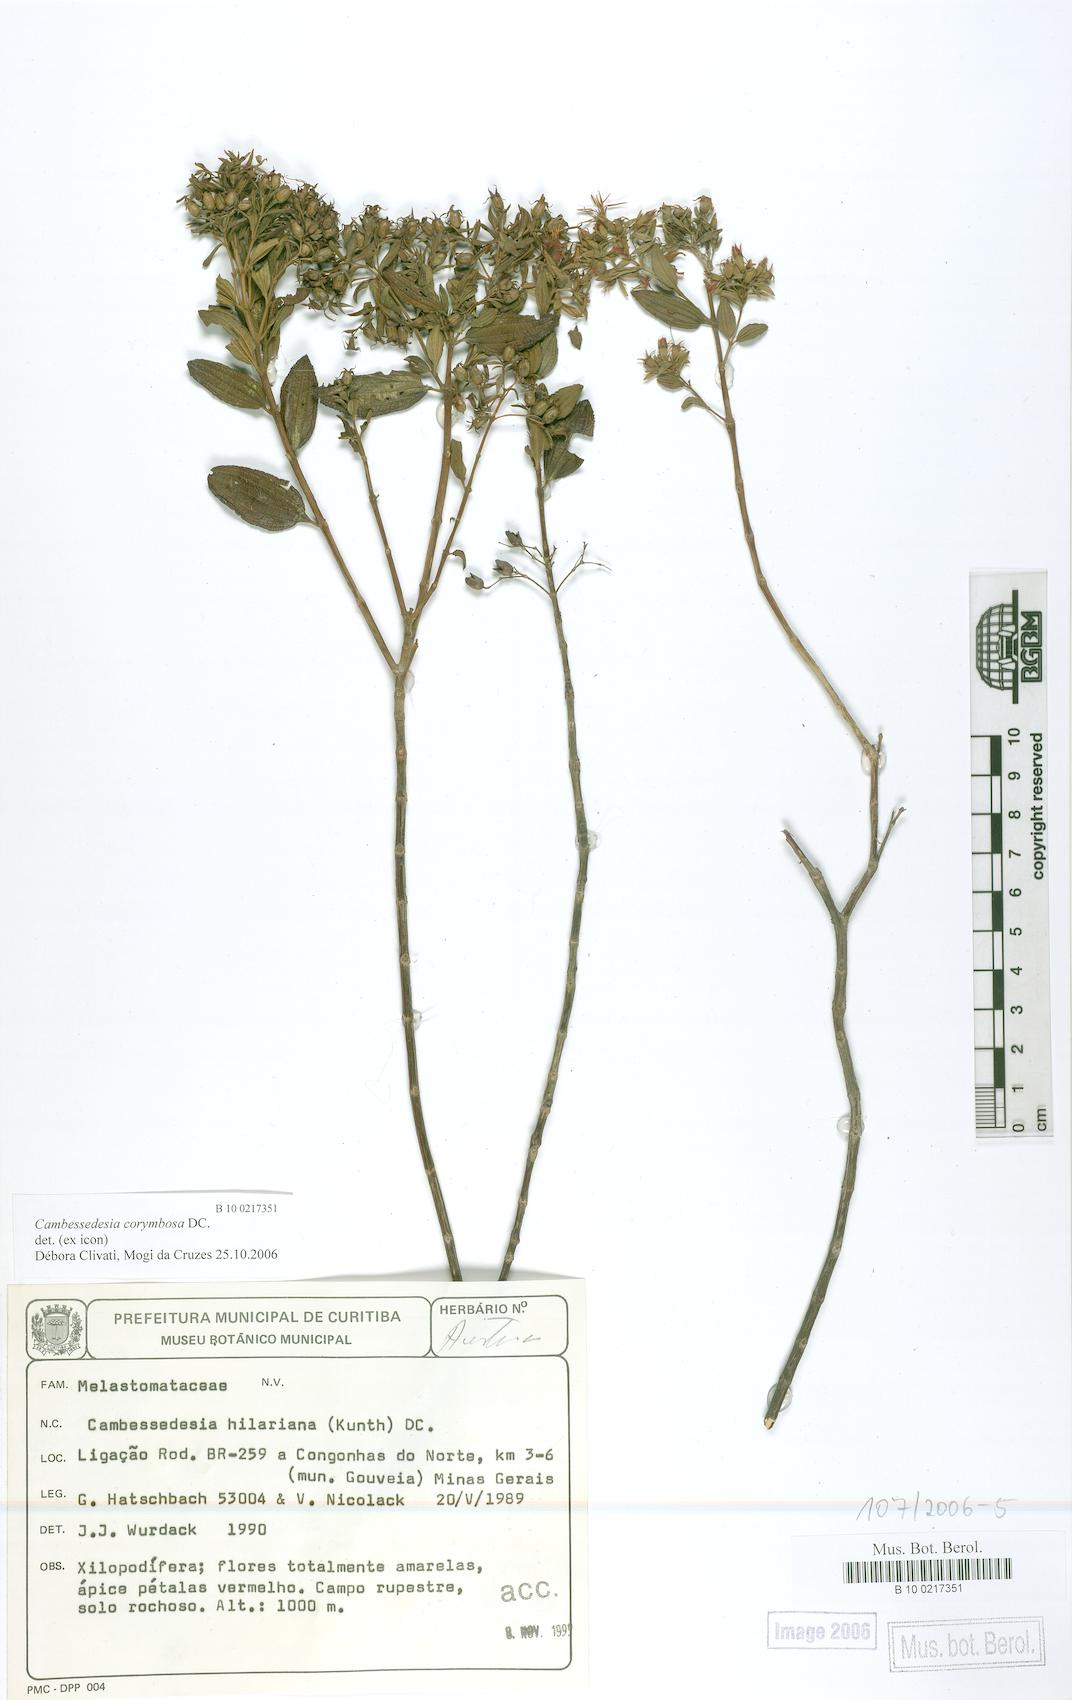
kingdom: Plantae
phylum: Tracheophyta
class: Magnoliopsida
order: Myrtales
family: Melastomataceae
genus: Cambessedesia
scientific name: Cambessedesia corymbosa
